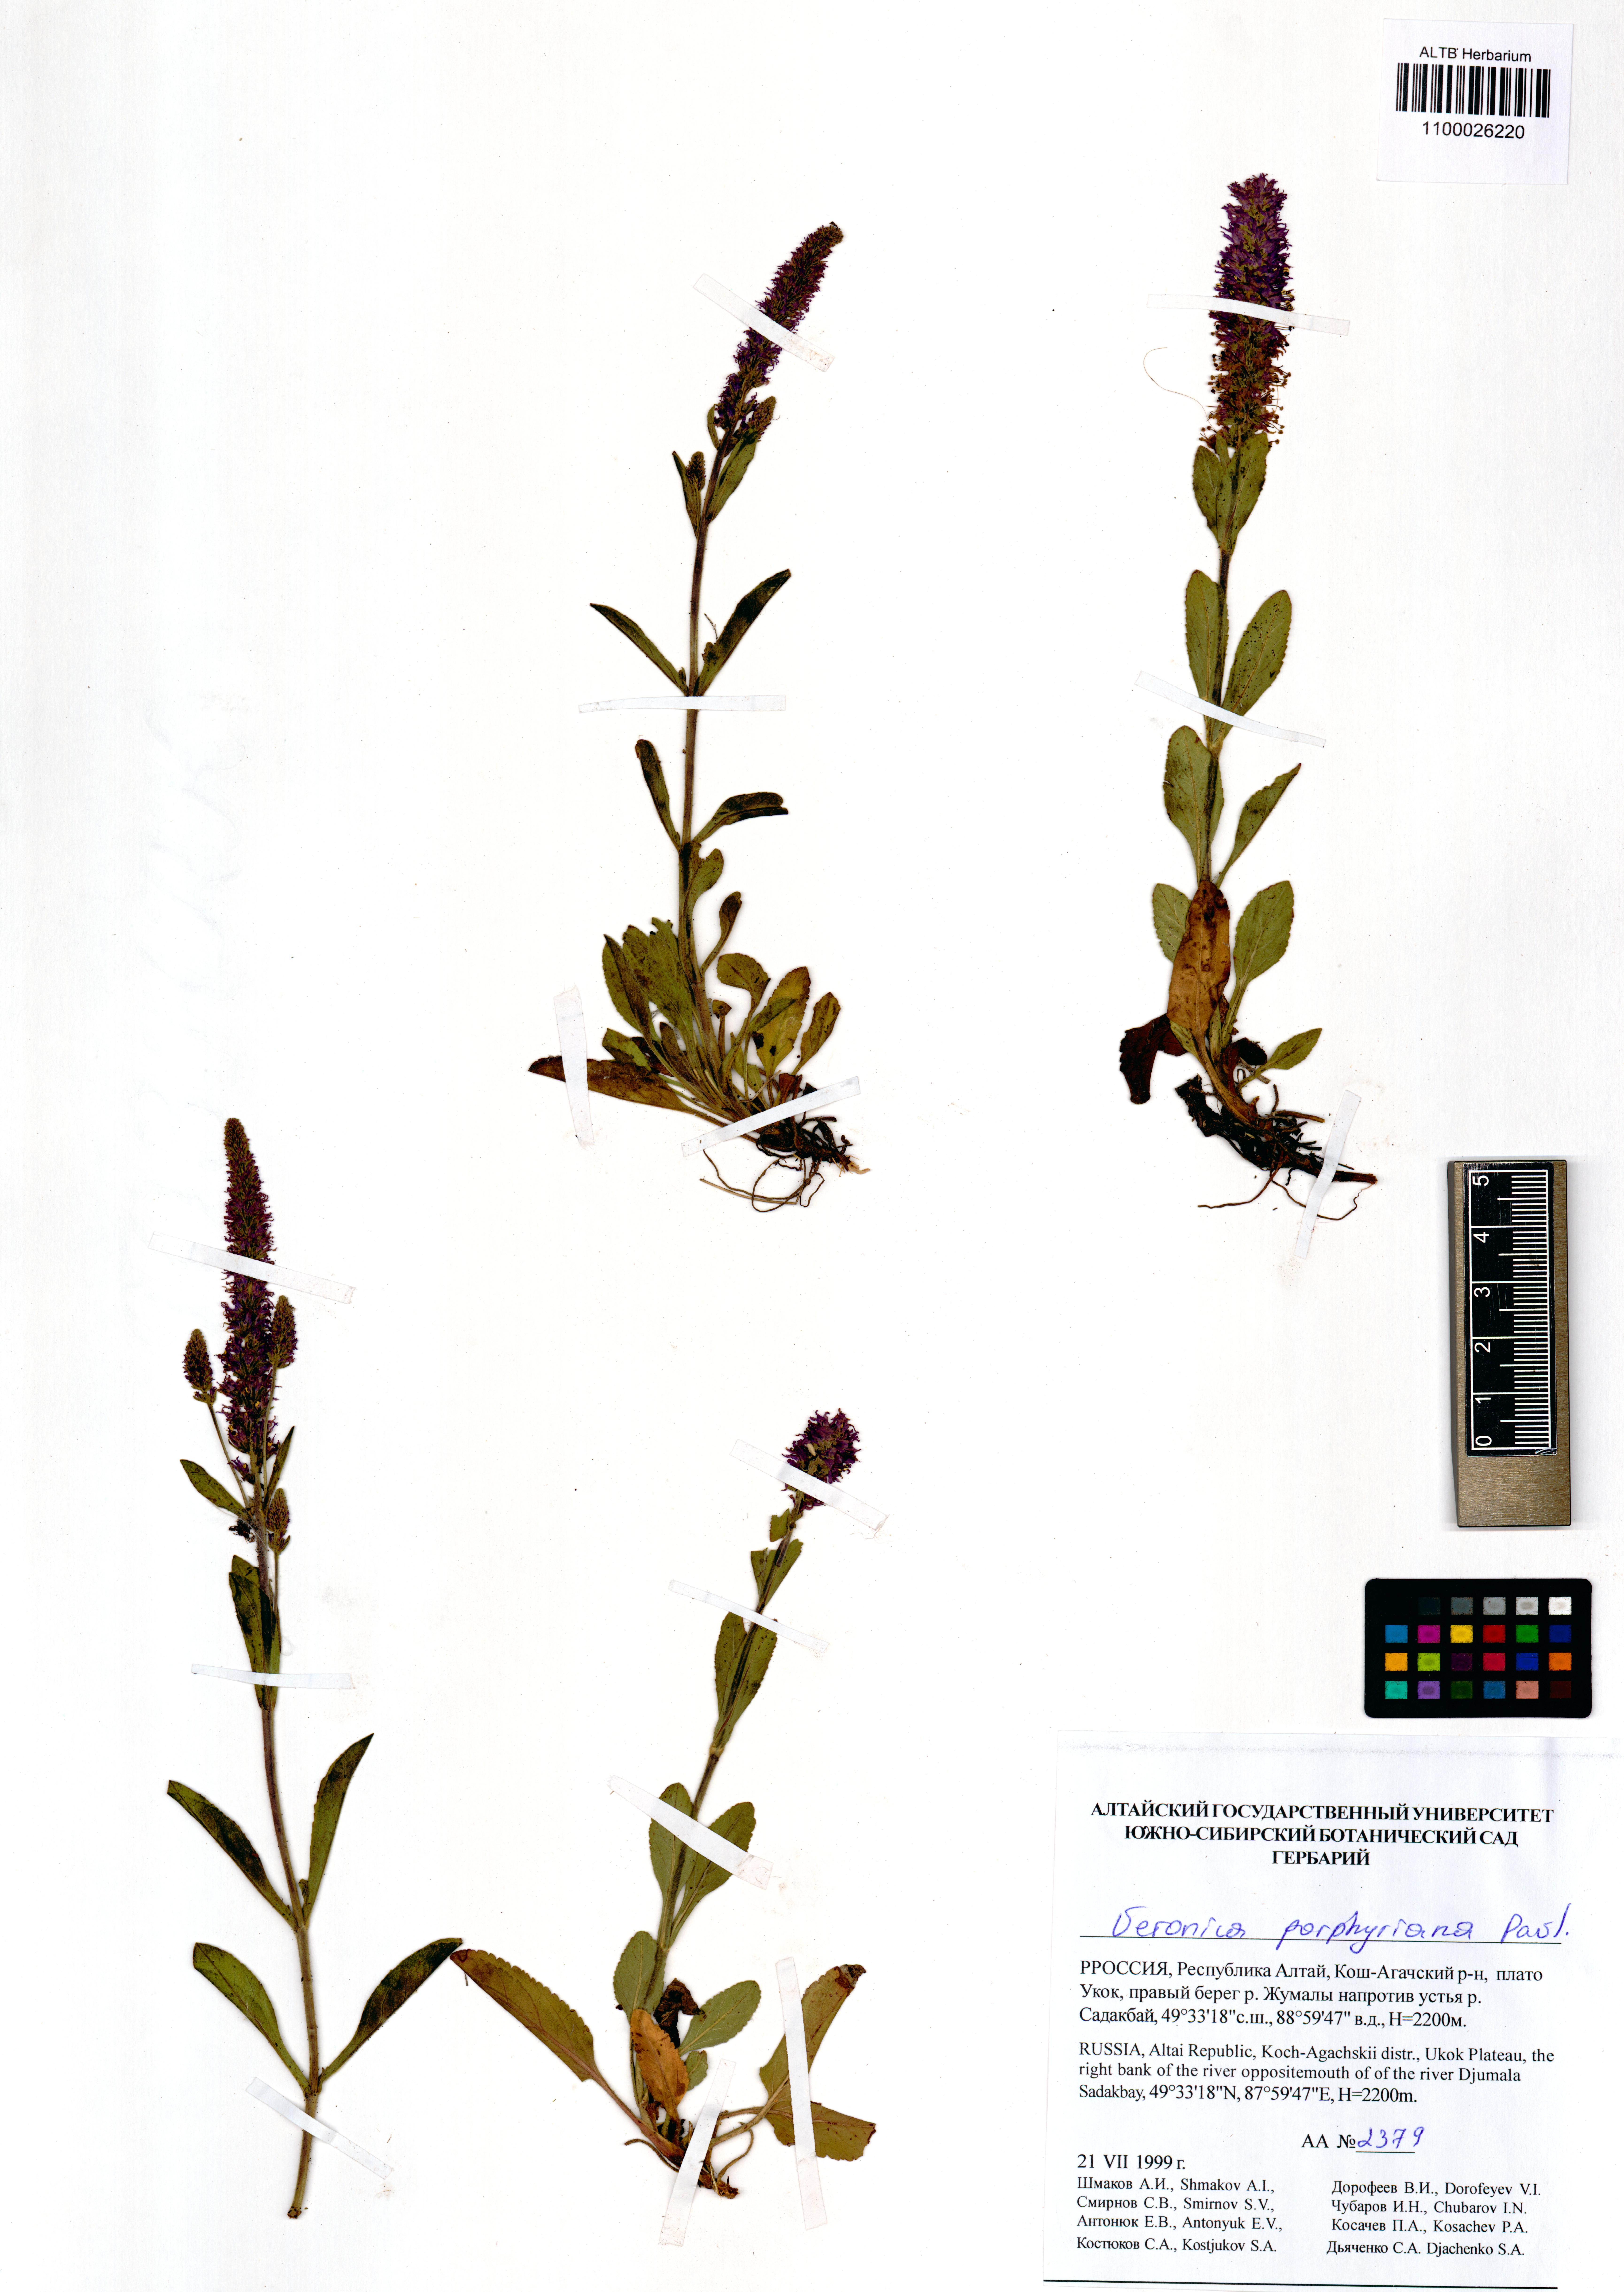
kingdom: Plantae
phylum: Tracheophyta
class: Magnoliopsida
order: Lamiales
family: Plantaginaceae
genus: Veronica
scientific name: Veronica porphyriana
